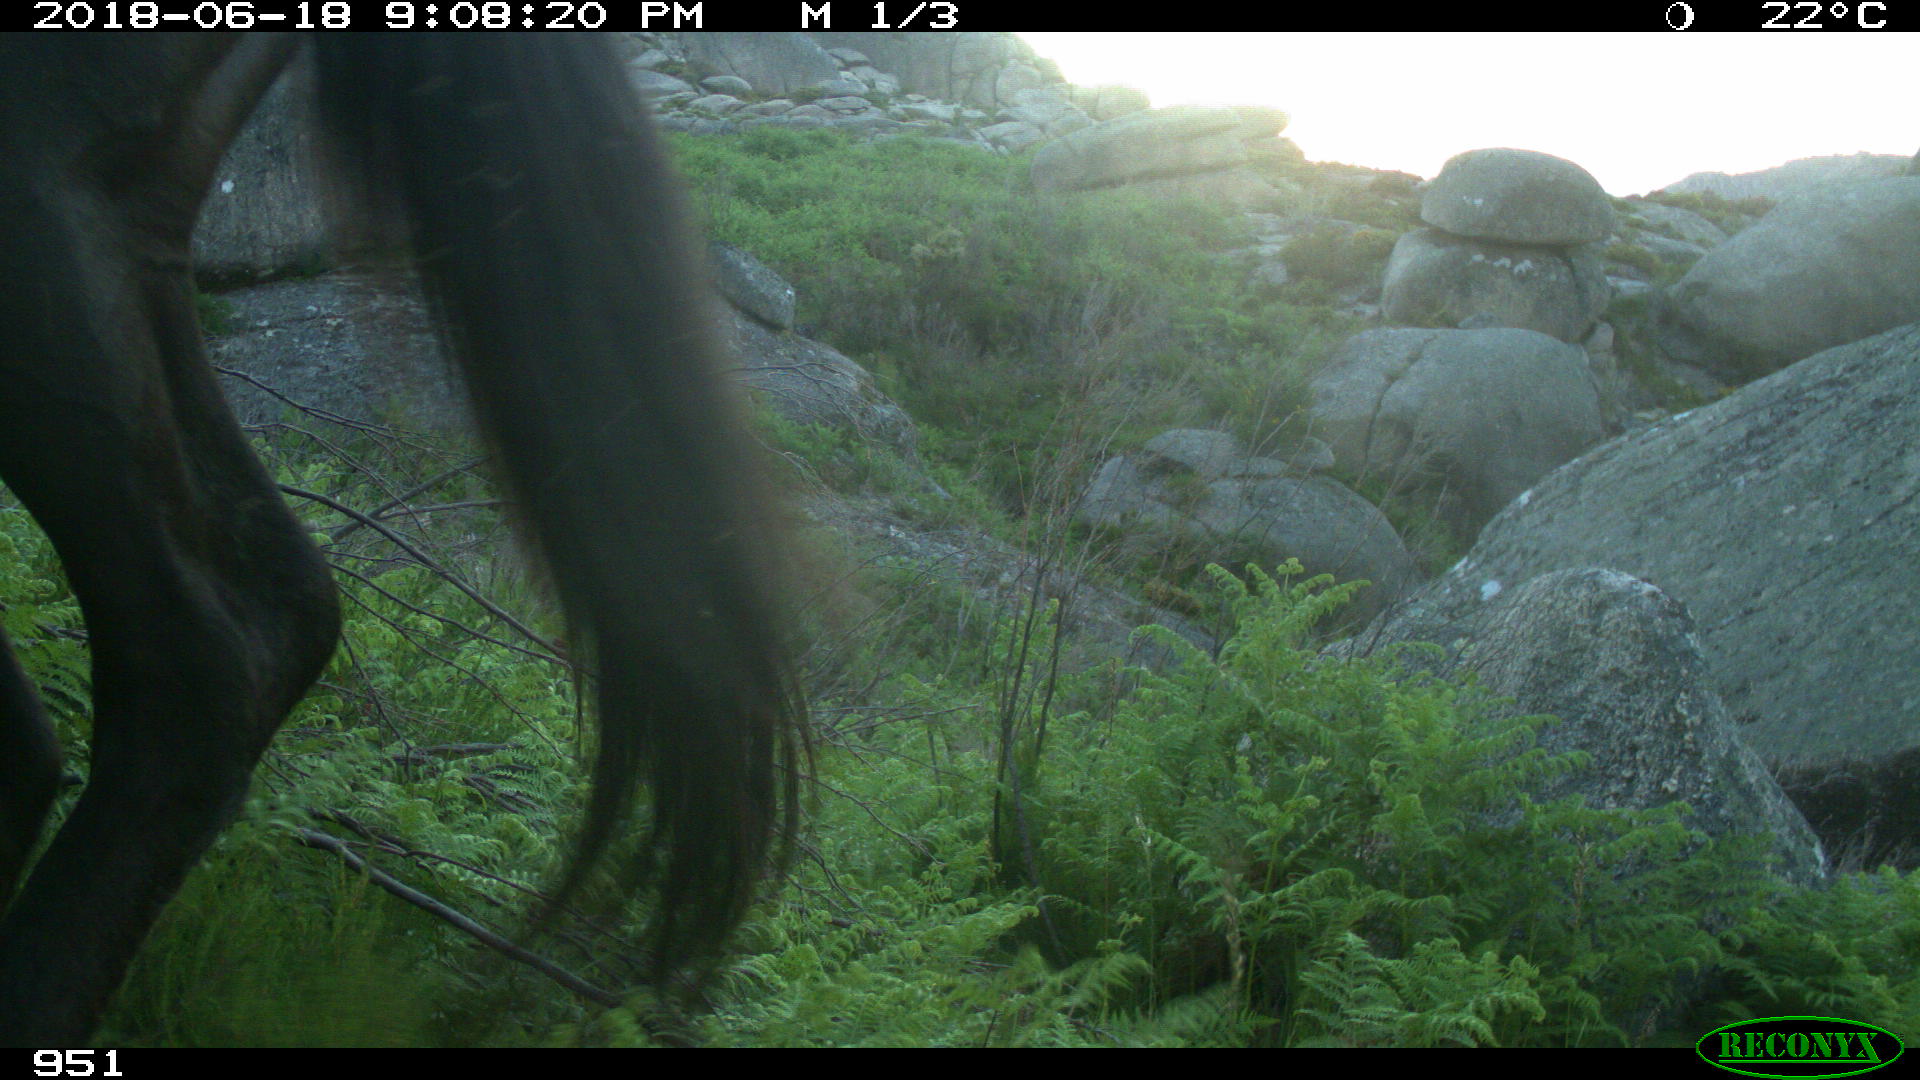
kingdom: Animalia
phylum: Chordata
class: Mammalia
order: Perissodactyla
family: Equidae
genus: Equus
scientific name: Equus caballus
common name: Horse
